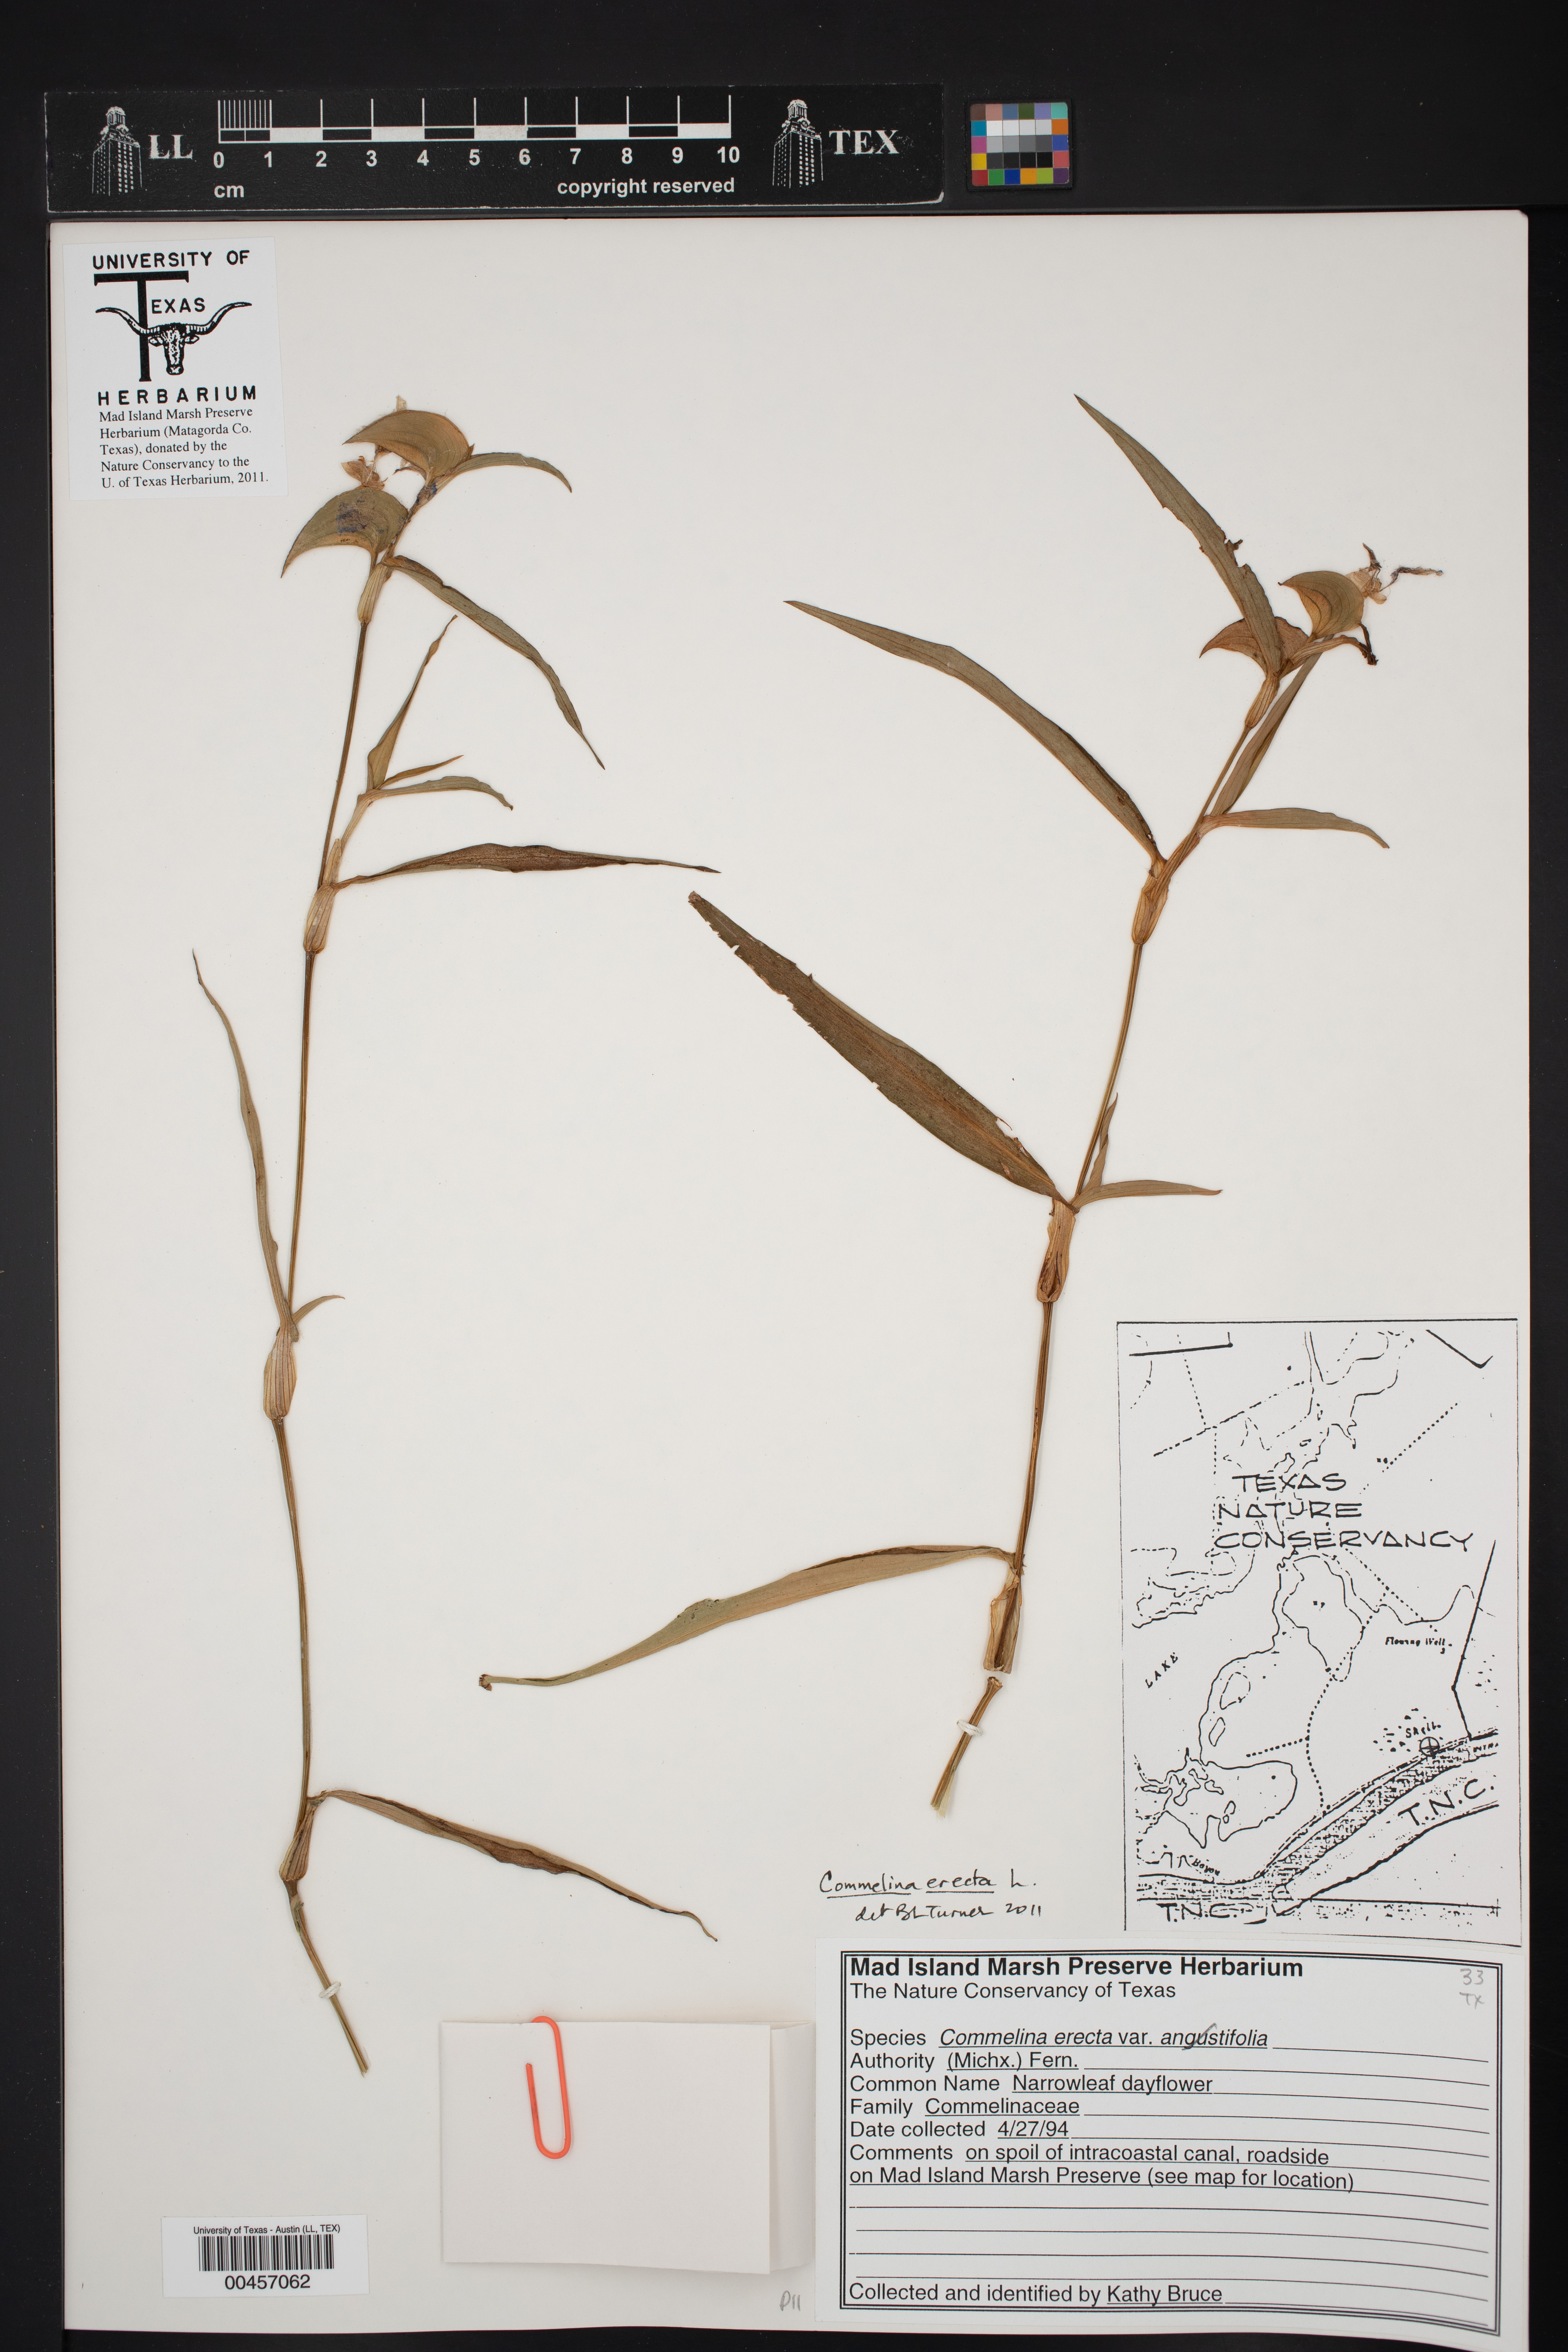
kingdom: Plantae
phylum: Tracheophyta
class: Liliopsida
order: Commelinales
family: Commelinaceae
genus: Commelina
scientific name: Commelina erecta
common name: Blousel blommetjie
